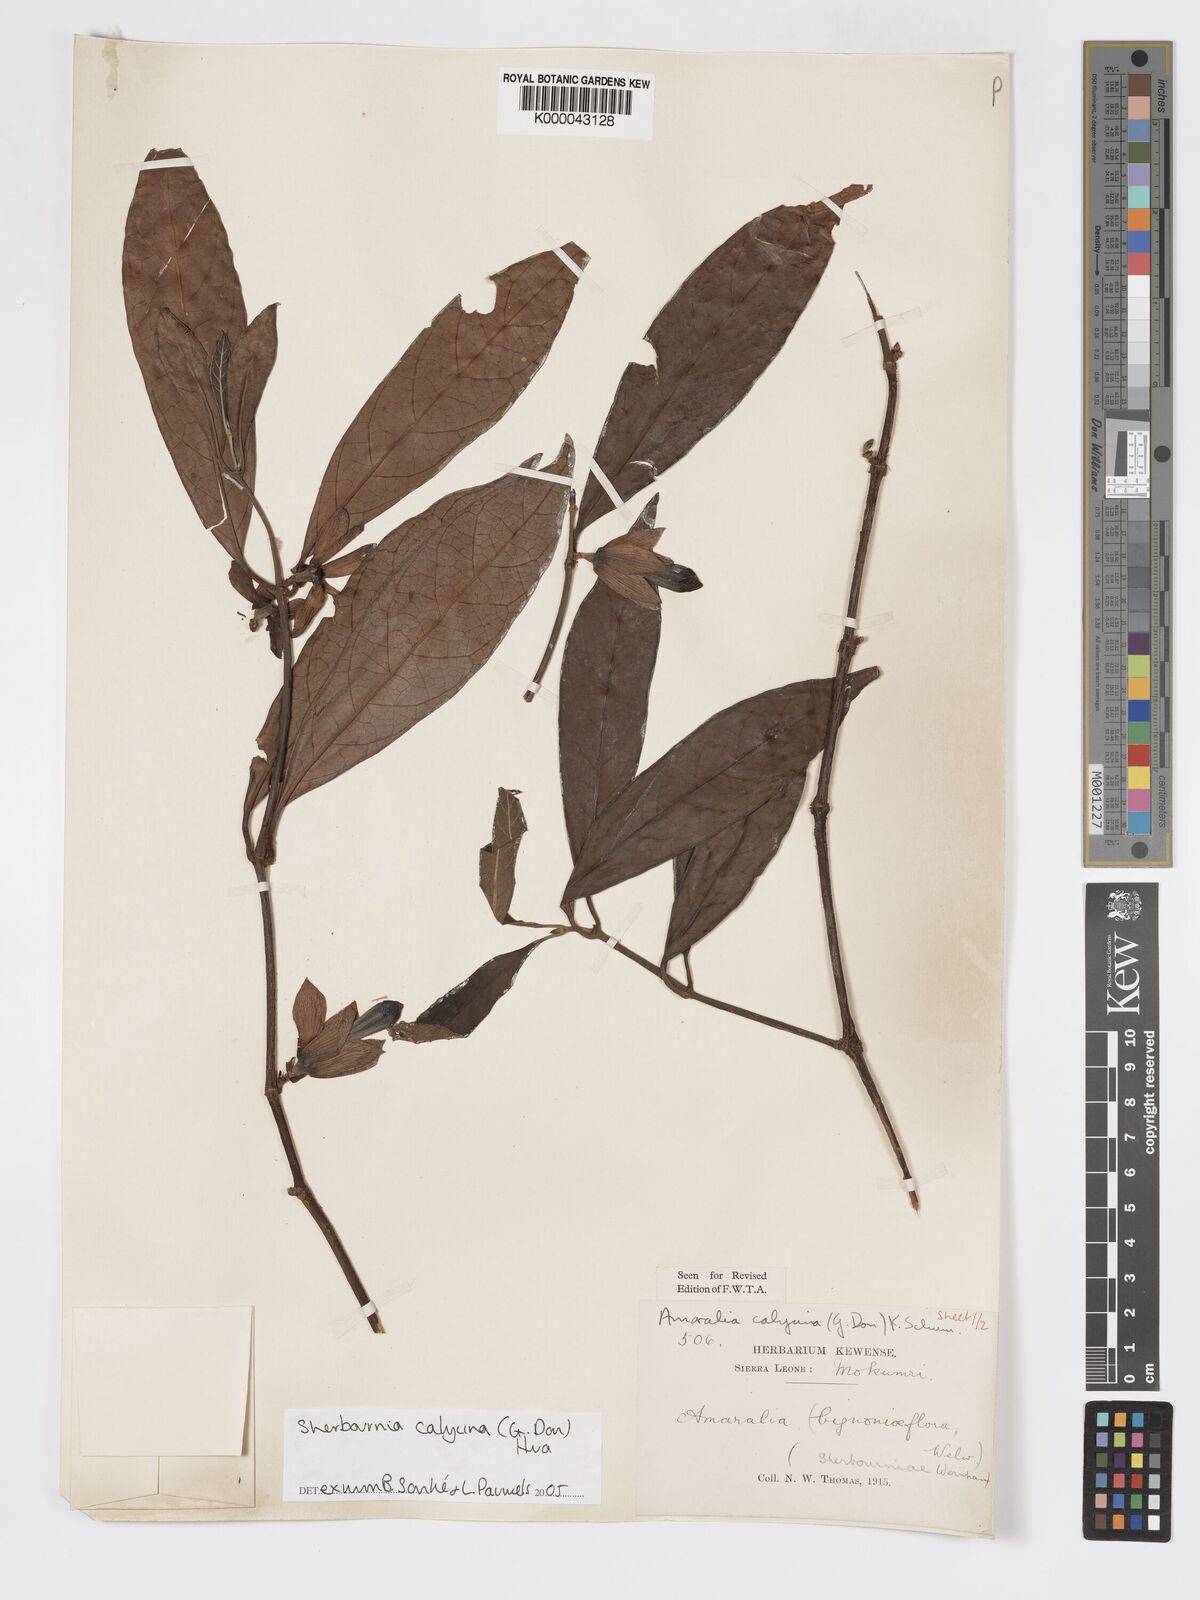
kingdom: Plantae
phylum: Tracheophyta
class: Magnoliopsida
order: Gentianales
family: Rubiaceae
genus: Sherbournia
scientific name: Sherbournia calycina
